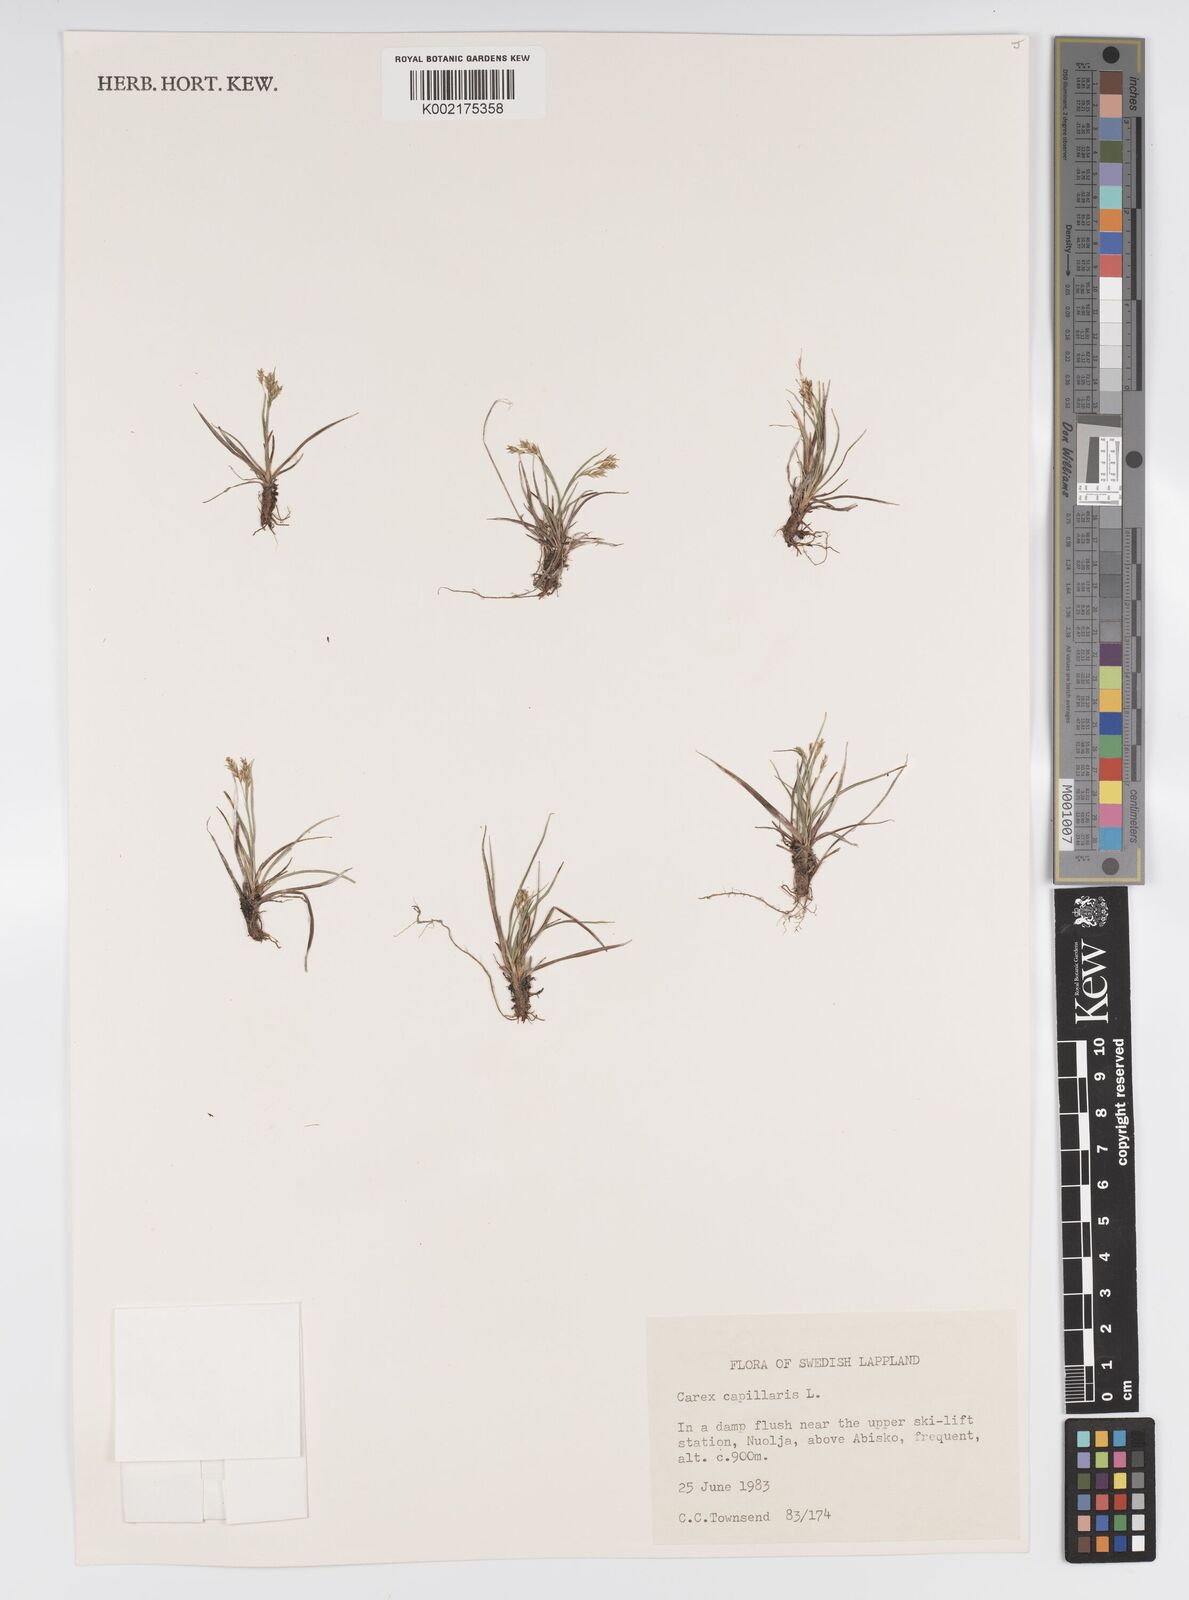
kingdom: Plantae
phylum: Tracheophyta
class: Liliopsida
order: Poales
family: Cyperaceae
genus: Carex
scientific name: Carex sylvatica
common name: Wood-sedge
